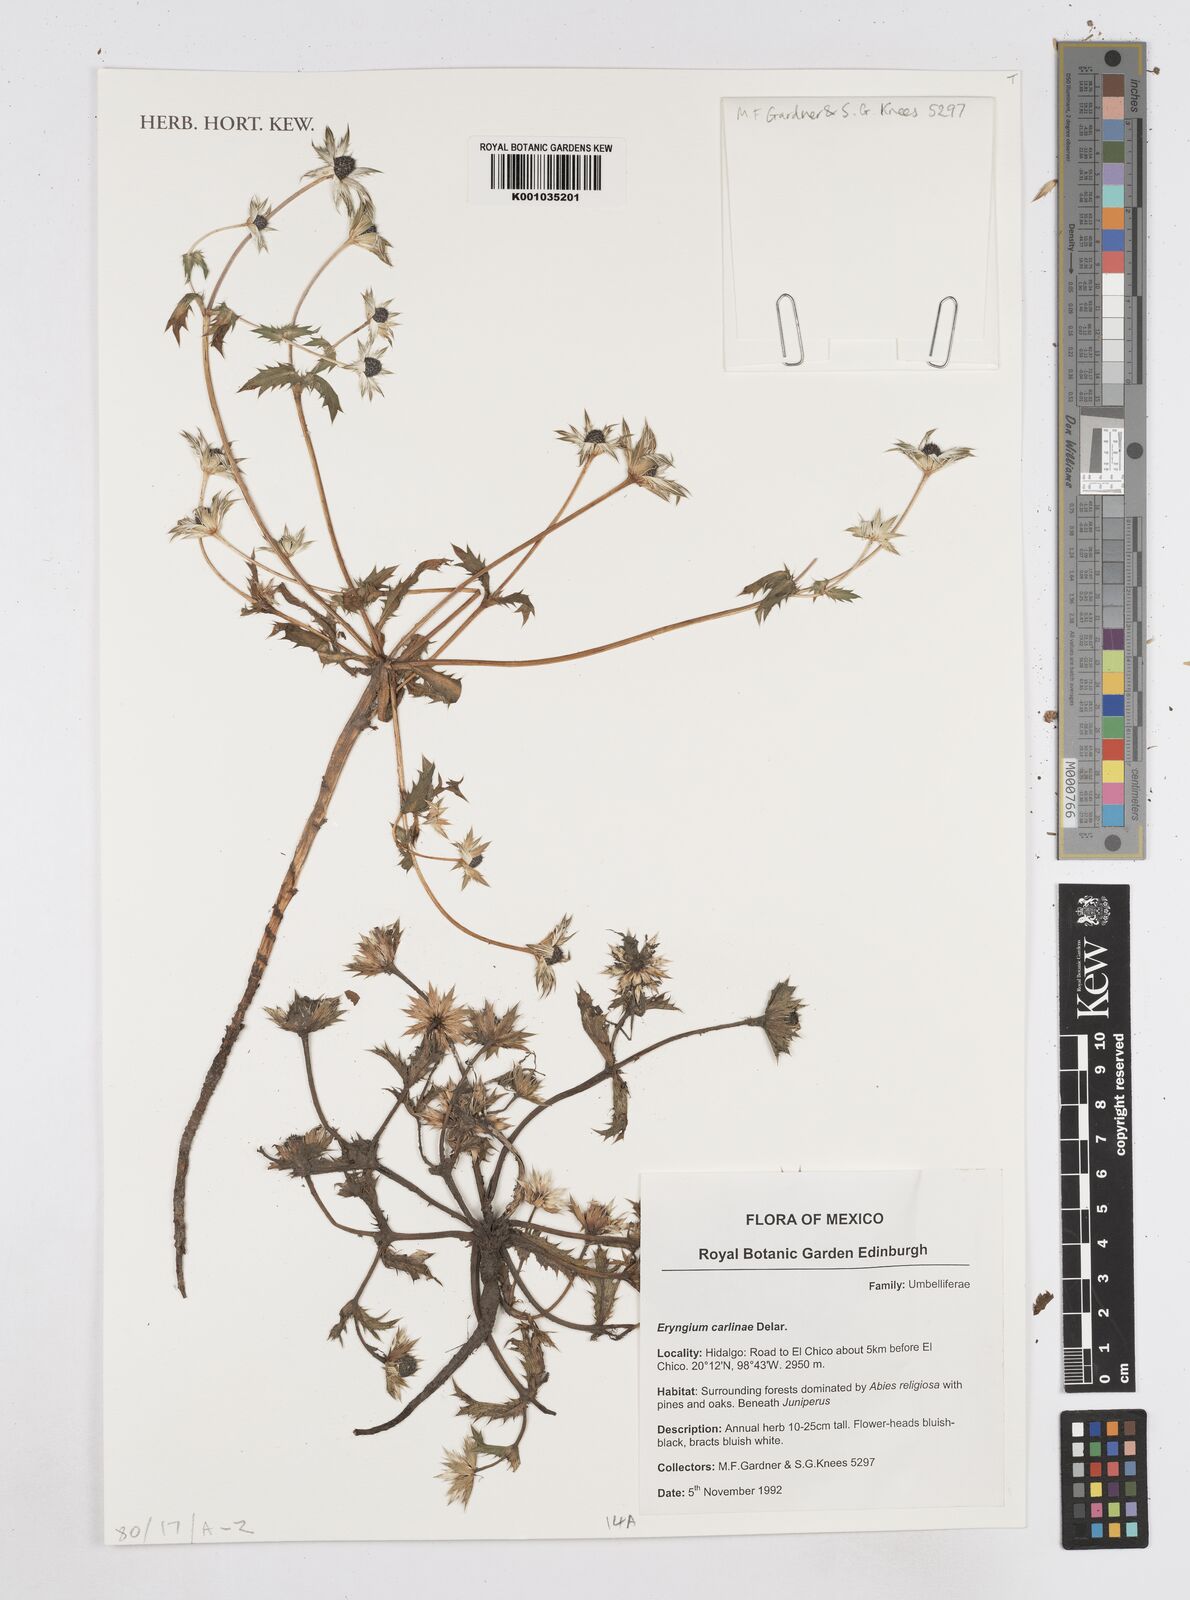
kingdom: Plantae
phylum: Tracheophyta
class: Magnoliopsida
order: Apiales
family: Apiaceae
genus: Eryngium
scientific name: Eryngium carlinae
